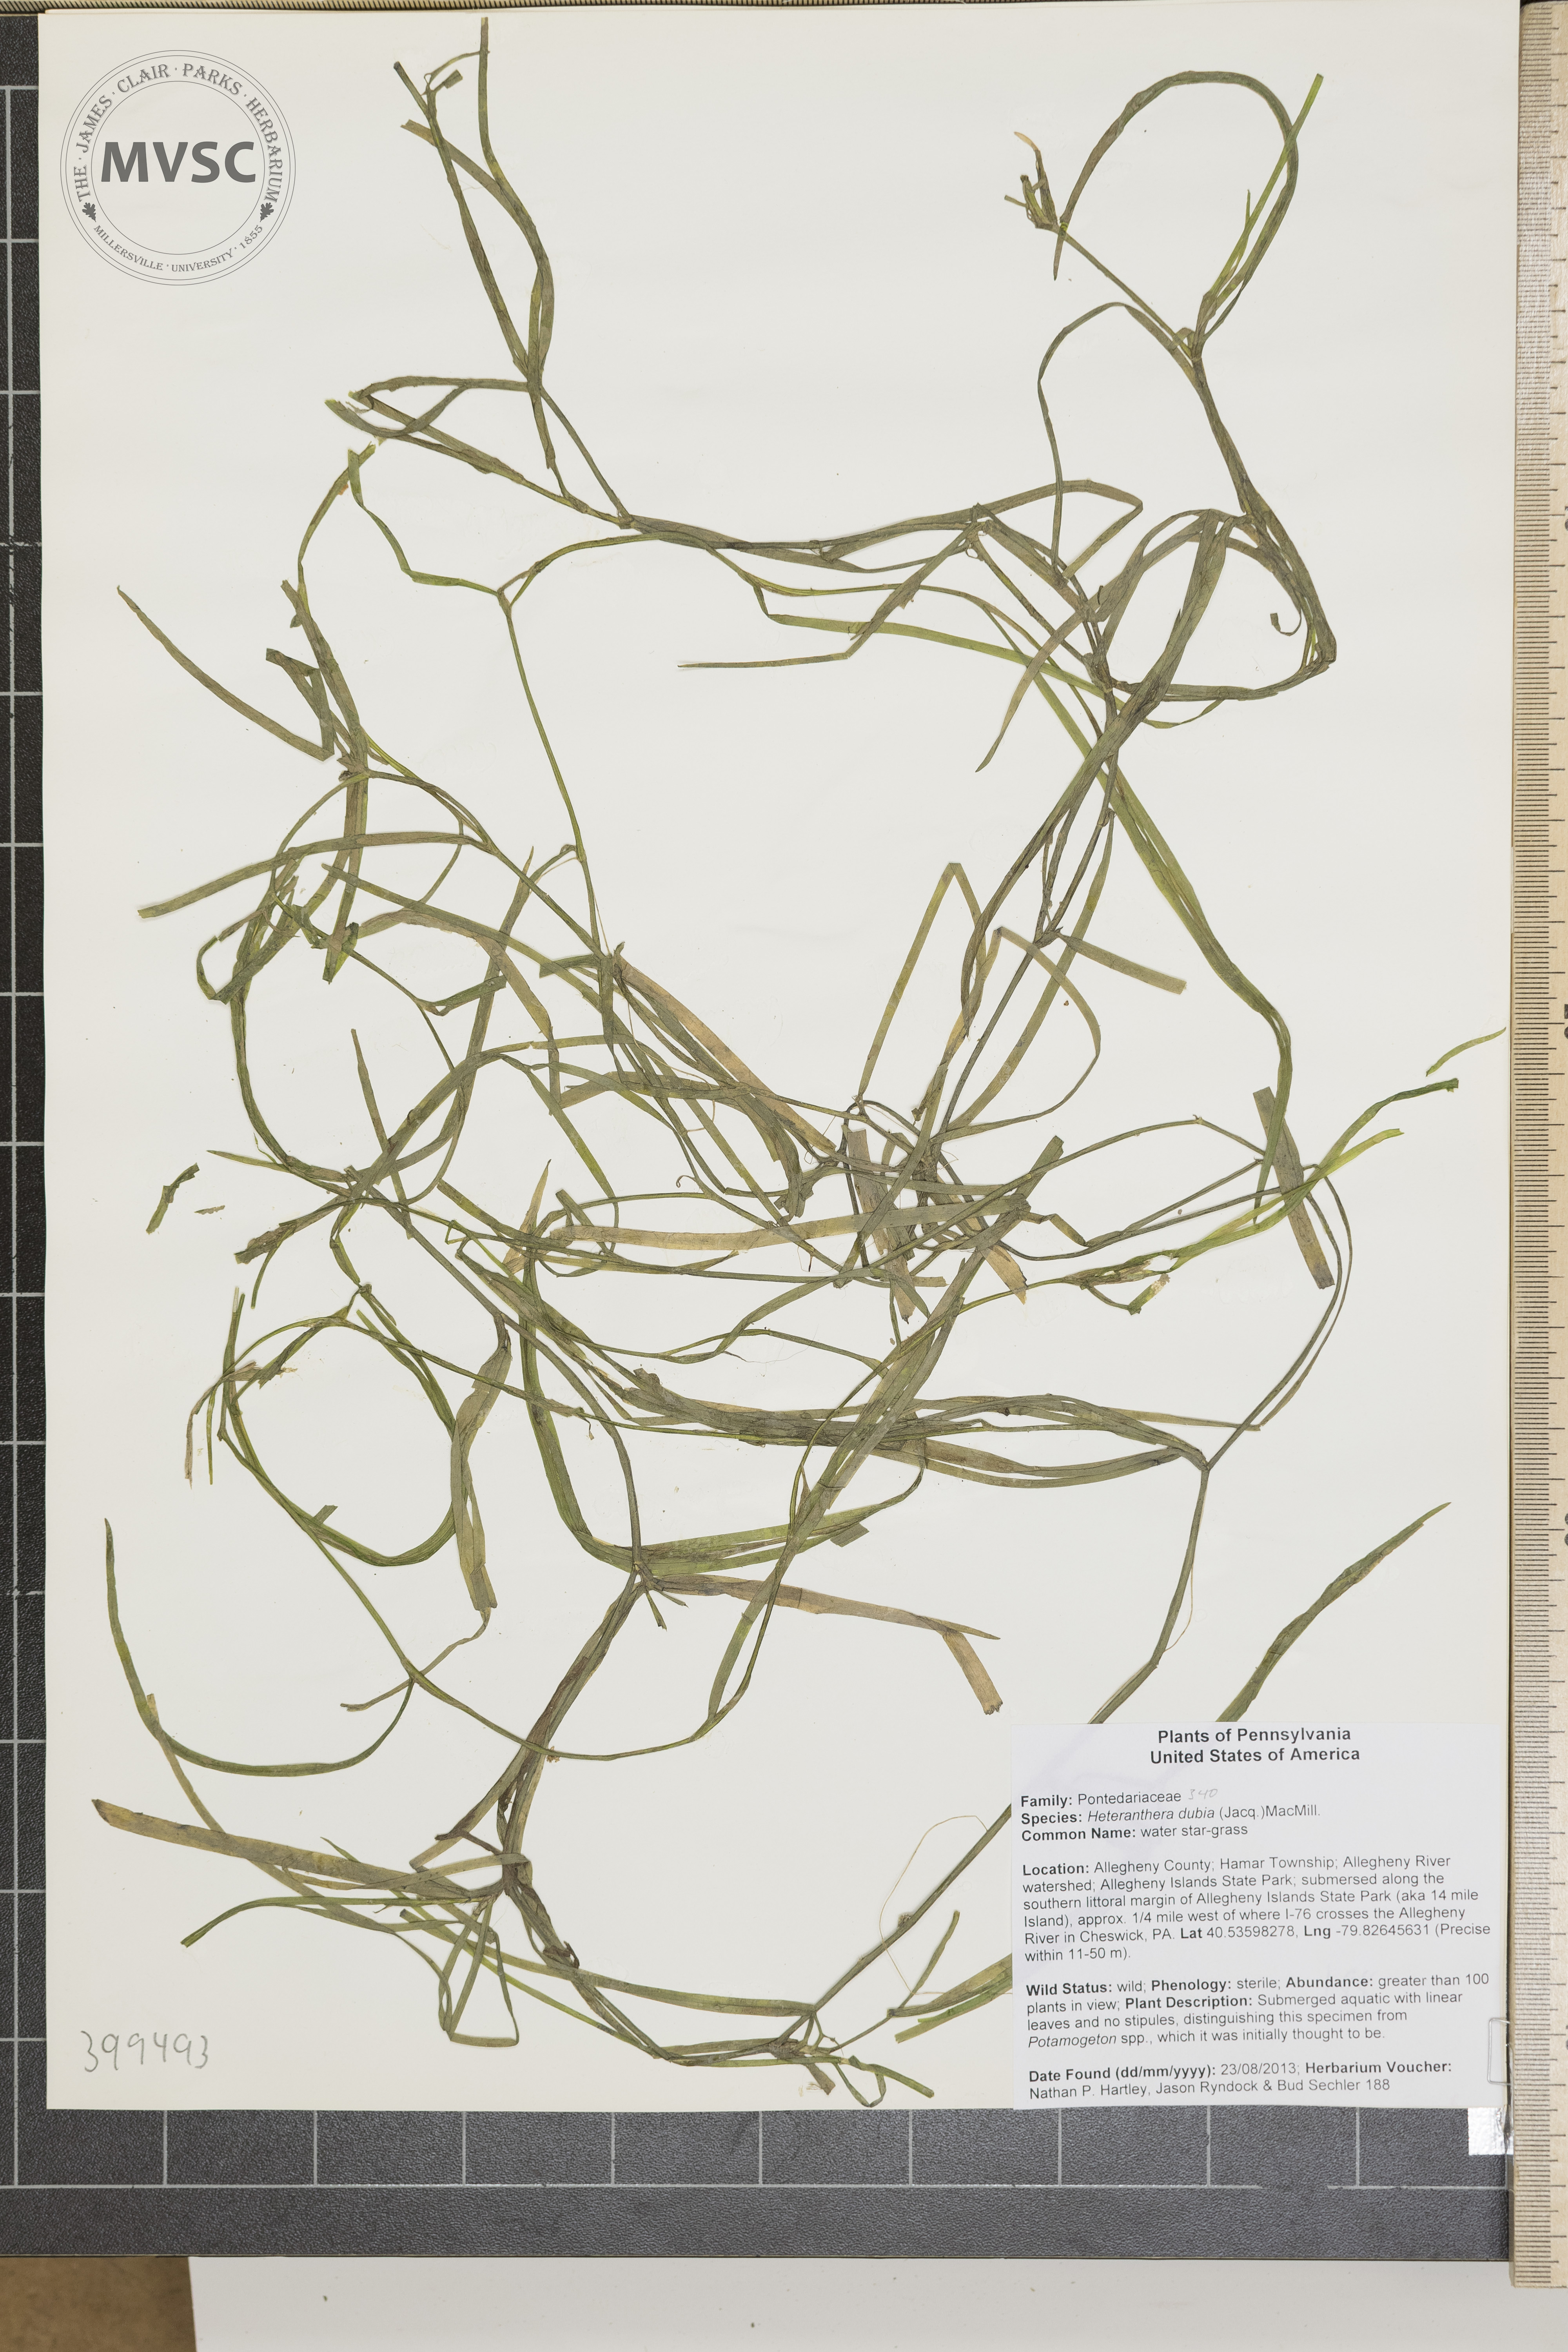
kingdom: Plantae
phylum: Tracheophyta
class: Liliopsida
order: Commelinales
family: Pontederiaceae
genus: Heteranthera
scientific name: Heteranthera dubia
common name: Water star-grass
